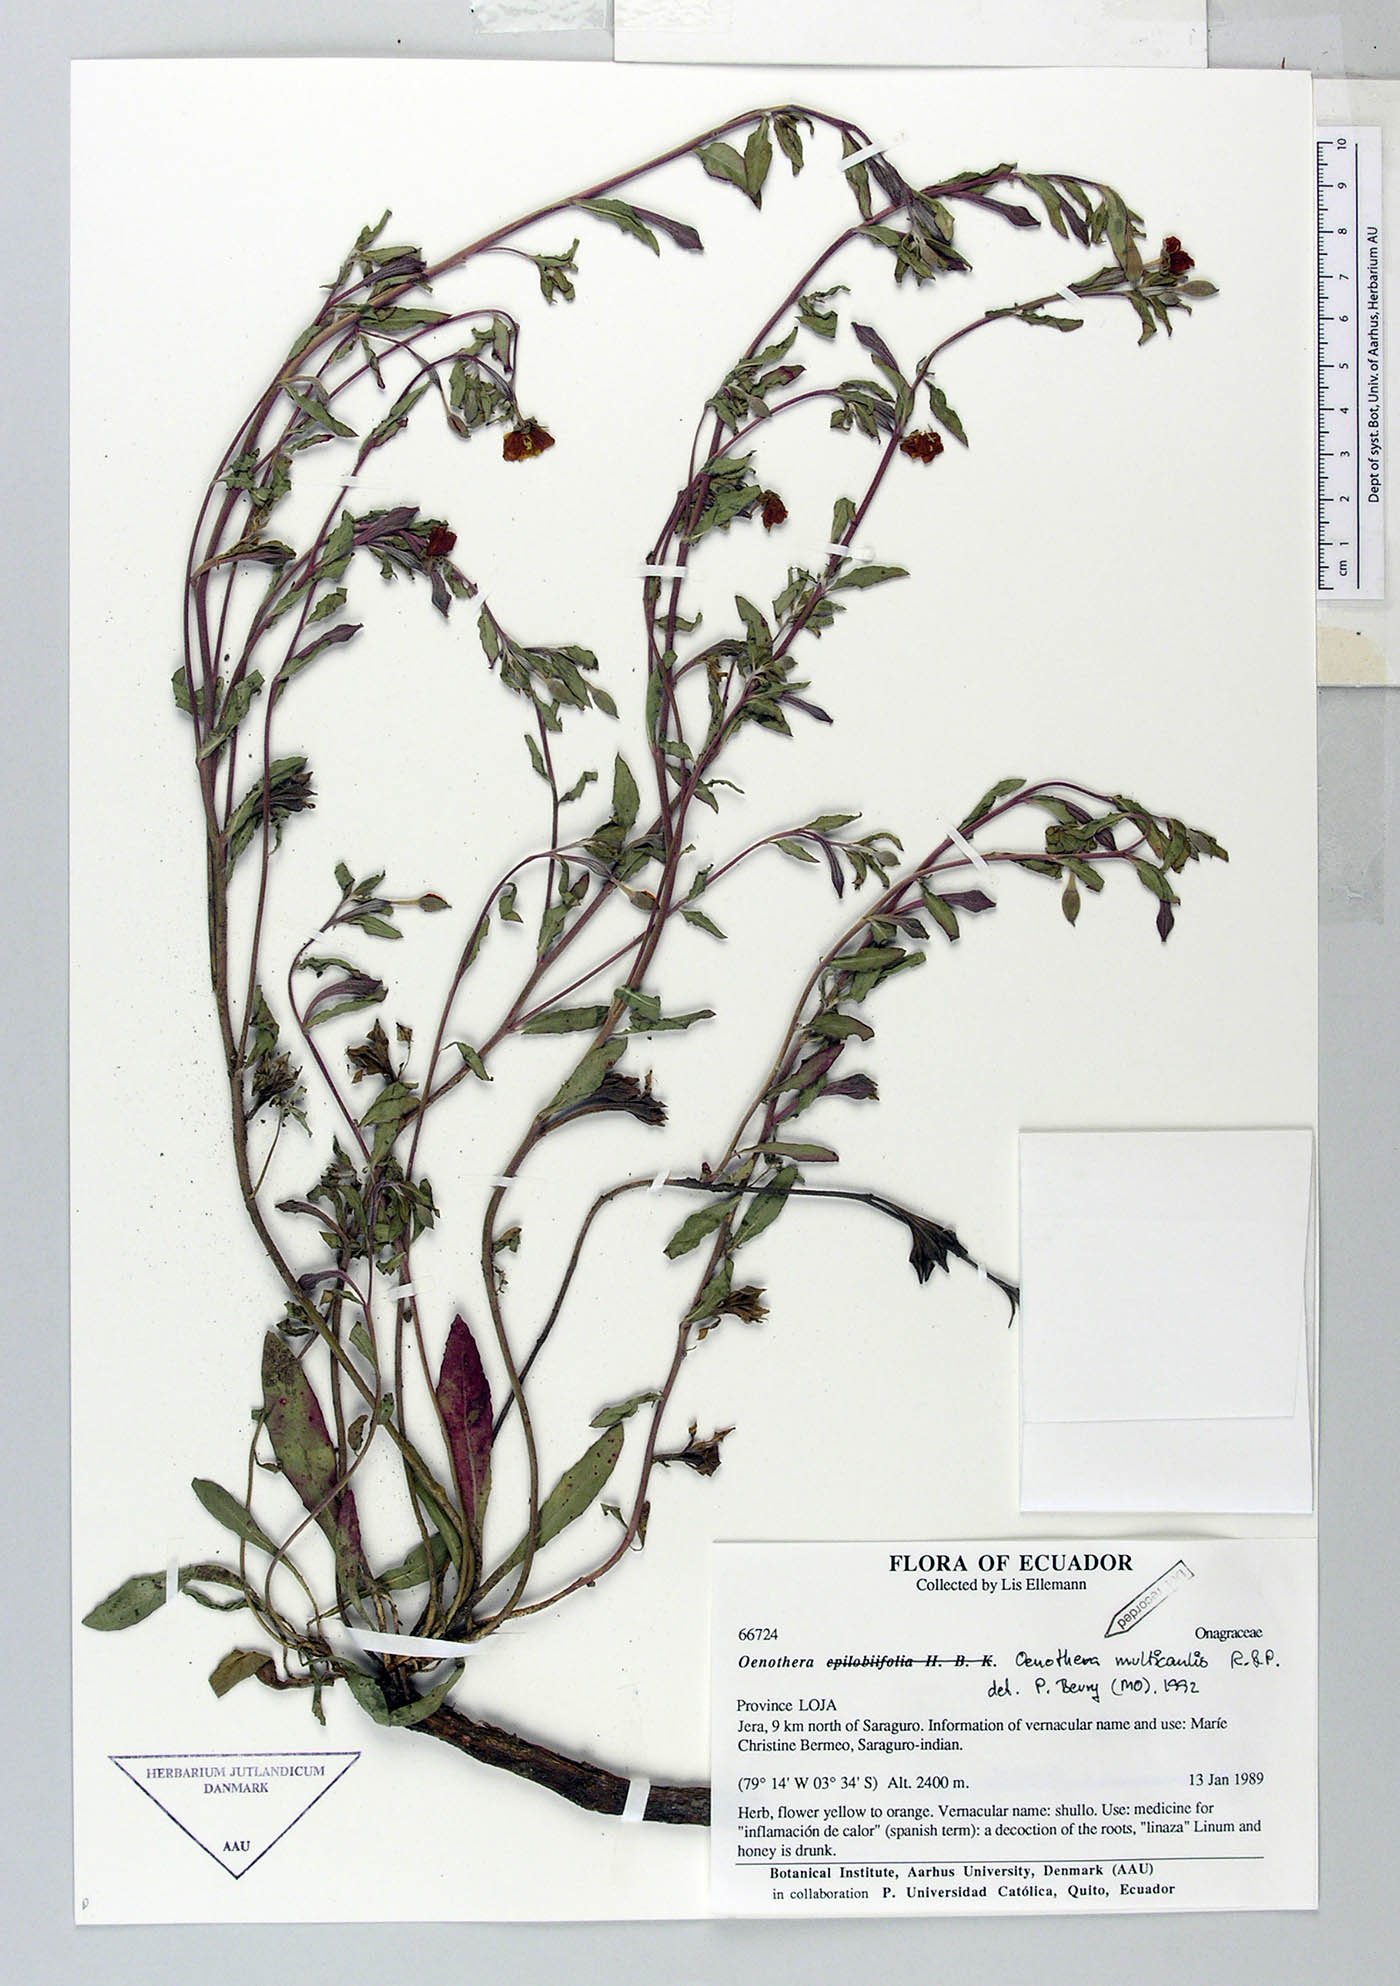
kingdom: Plantae
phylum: Tracheophyta
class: Magnoliopsida
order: Myrtales
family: Onagraceae
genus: Oenothera
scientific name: Oenothera multicaulis
